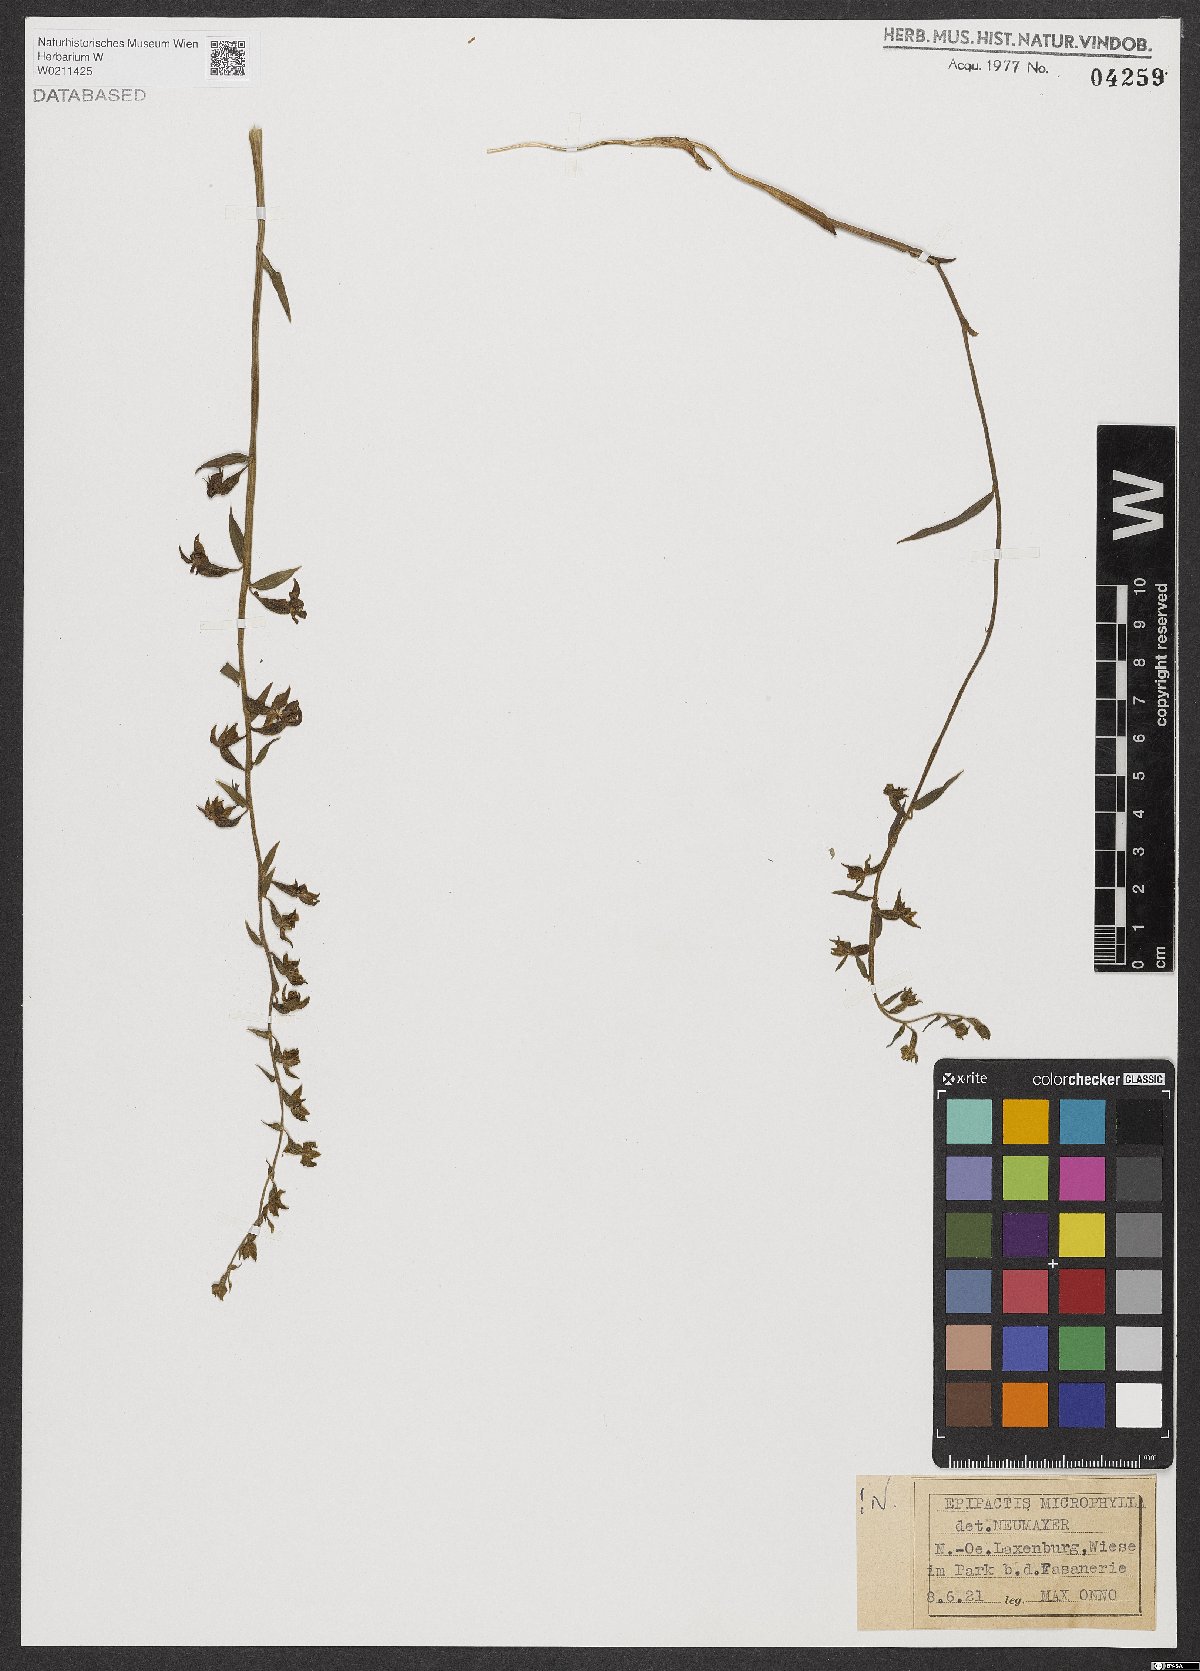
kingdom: Plantae
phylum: Tracheophyta
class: Liliopsida
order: Asparagales
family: Orchidaceae
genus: Epipactis
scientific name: Epipactis microphylla
